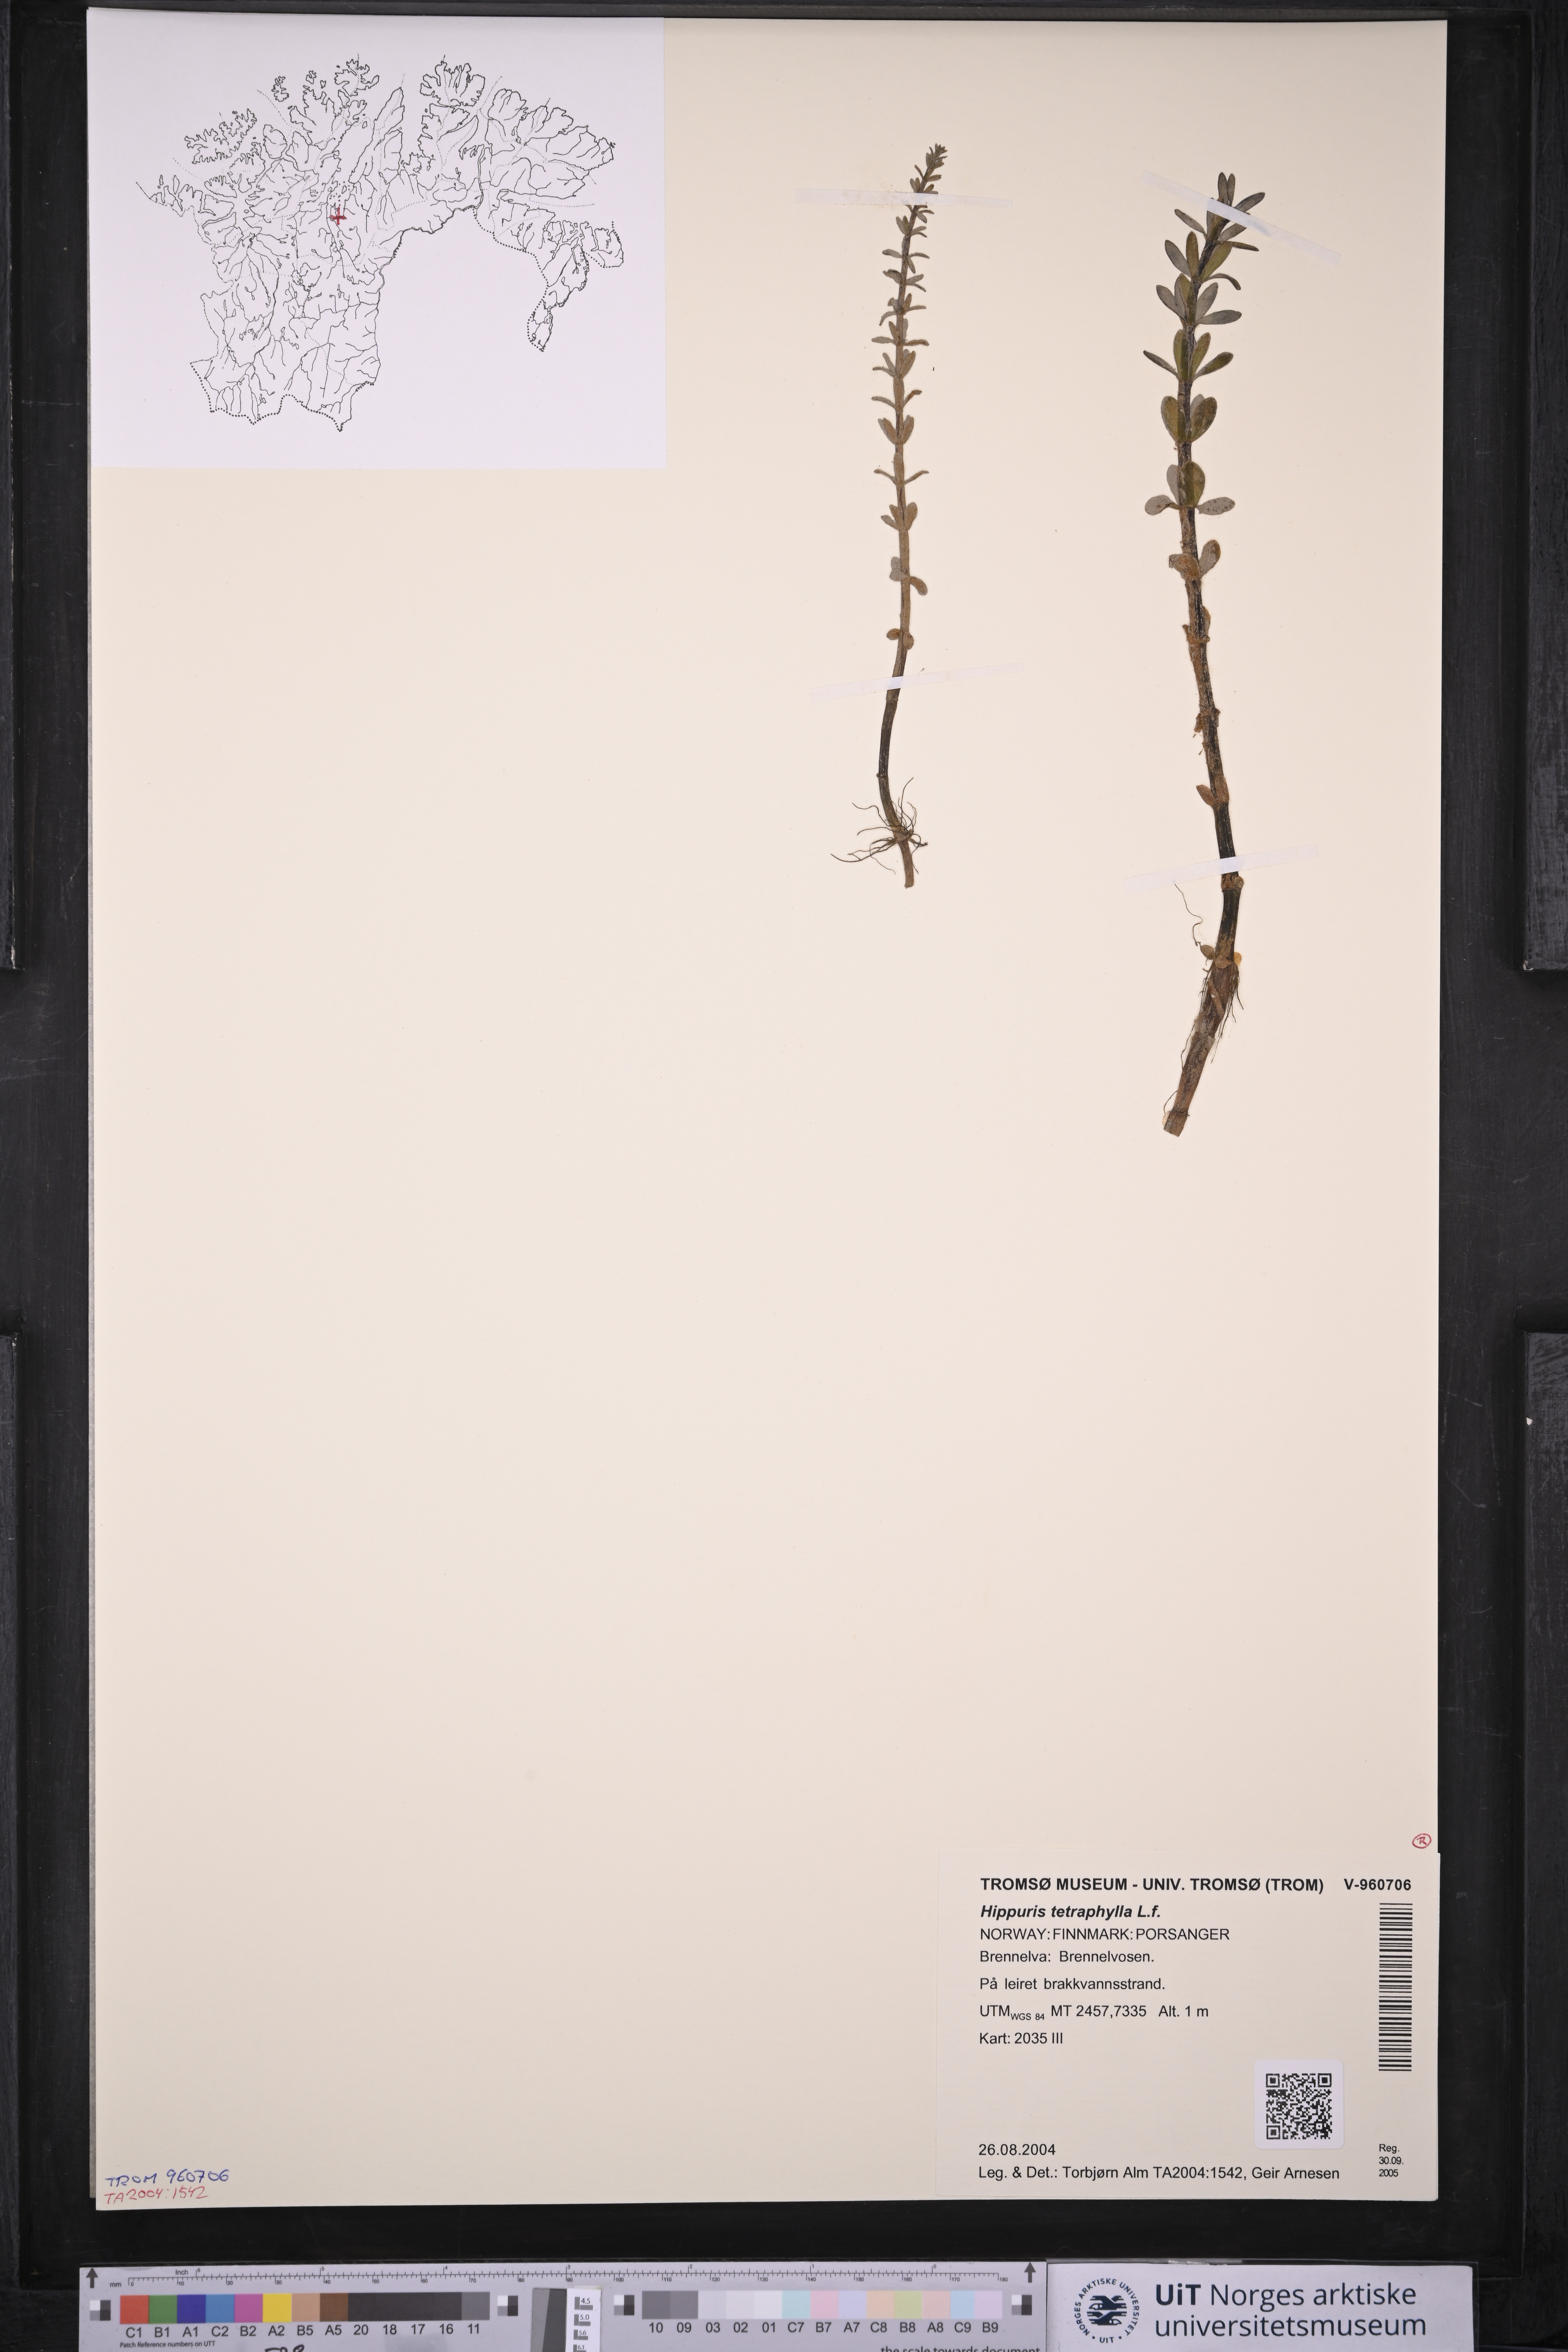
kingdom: Plantae
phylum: Tracheophyta
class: Magnoliopsida
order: Lamiales
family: Plantaginaceae
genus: Hippuris
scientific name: Hippuris tetraphylla
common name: Four-leaved mare's-tail
